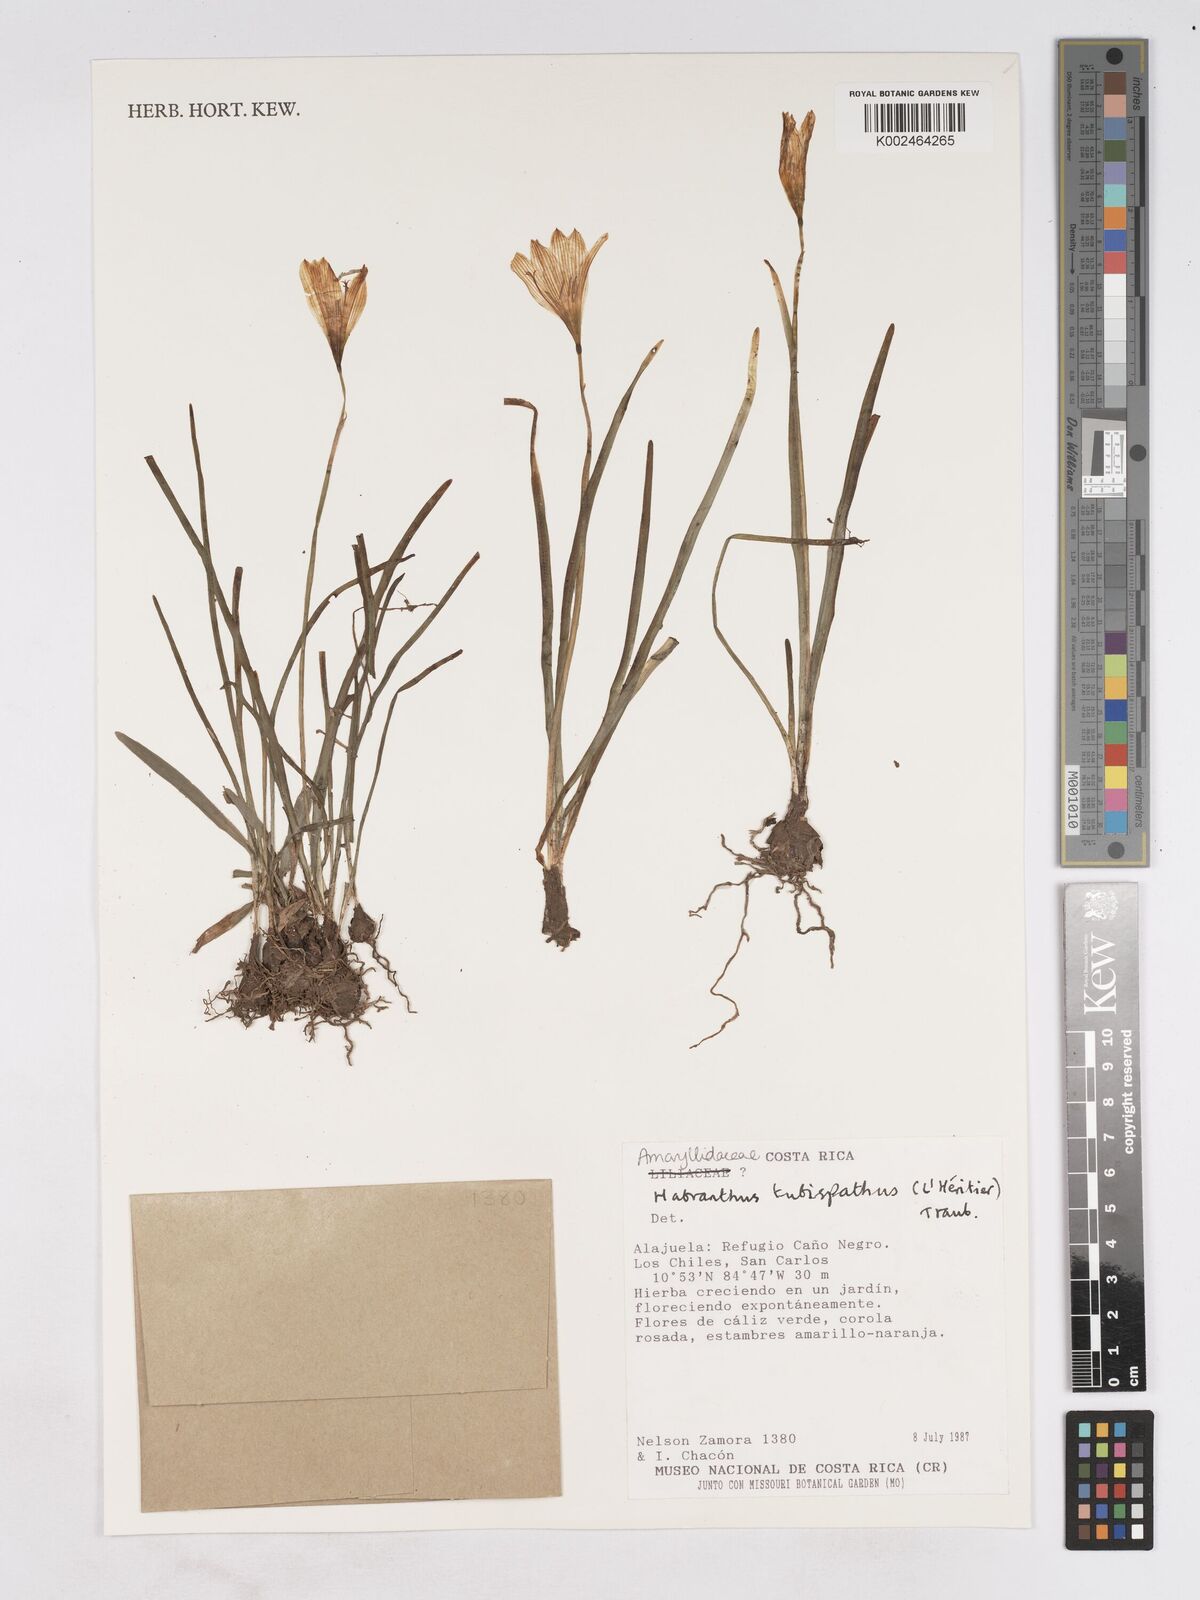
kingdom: Plantae
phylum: Tracheophyta
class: Liliopsida
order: Asparagales
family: Amaryllidaceae
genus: Zephyranthes
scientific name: Zephyranthes tubispatha
